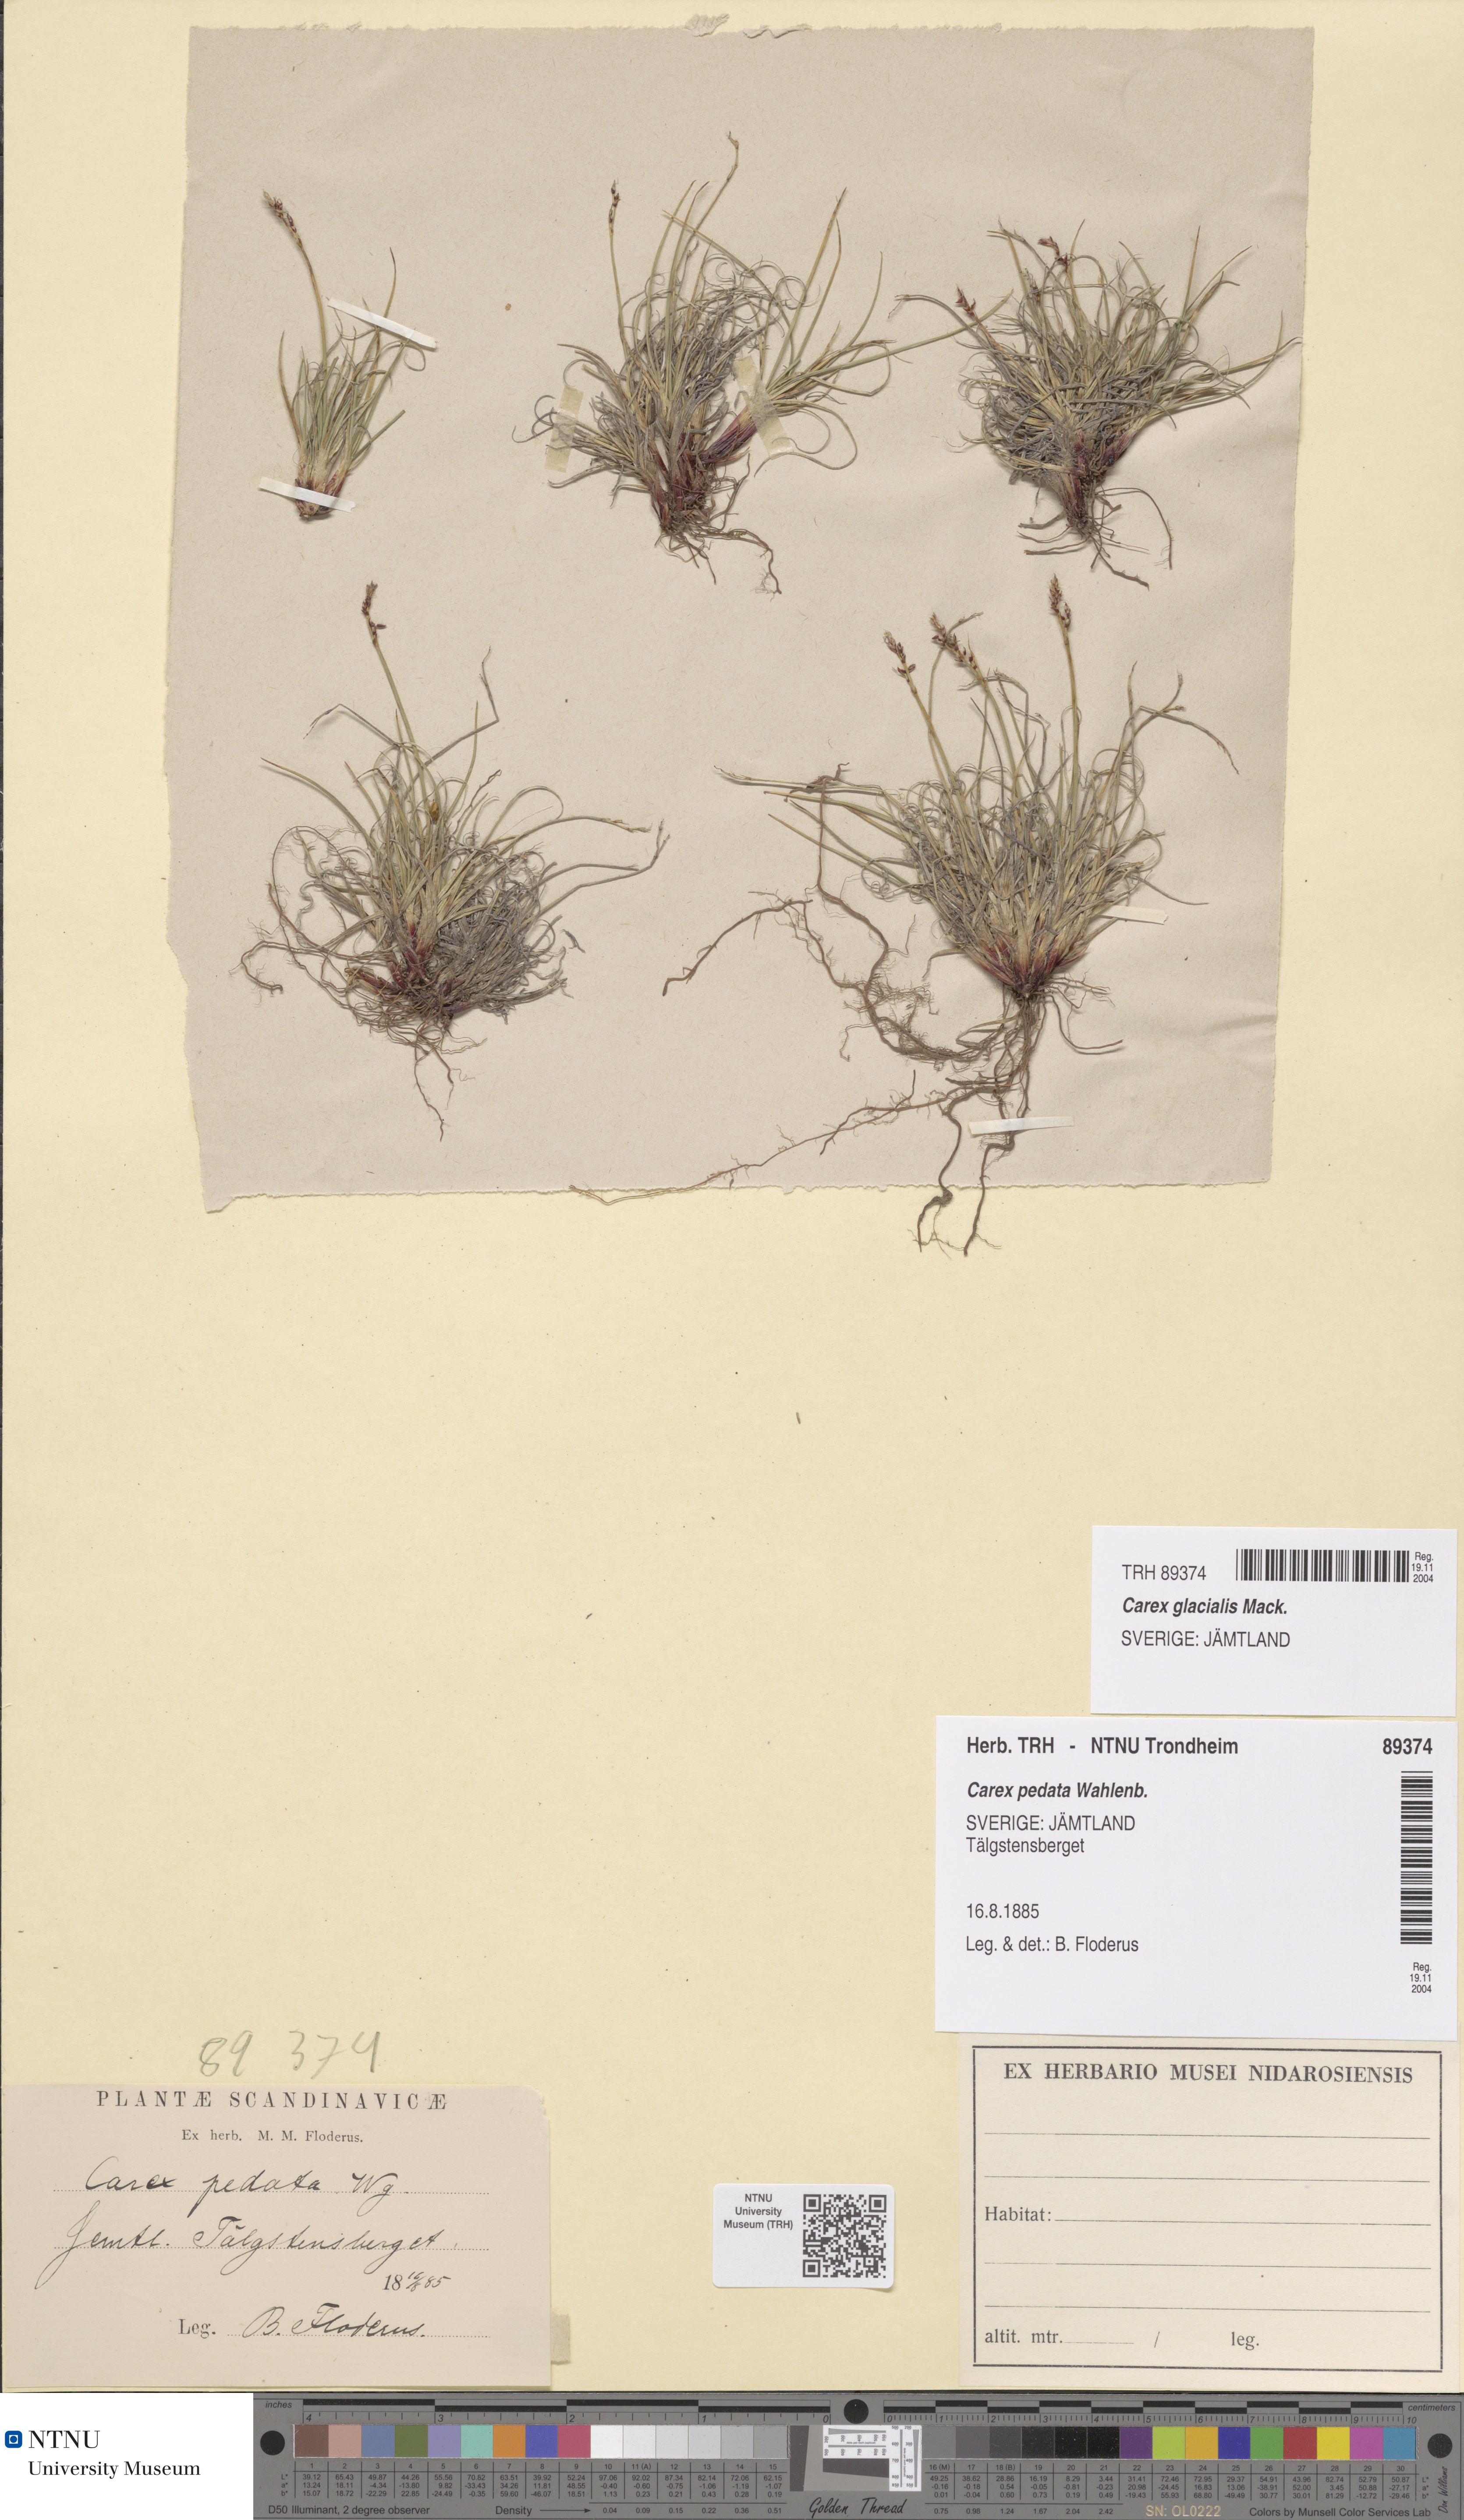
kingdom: Plantae
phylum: Tracheophyta
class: Liliopsida
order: Poales
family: Cyperaceae
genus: Carex
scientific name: Carex glacialis
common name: Newfoundland sedge
